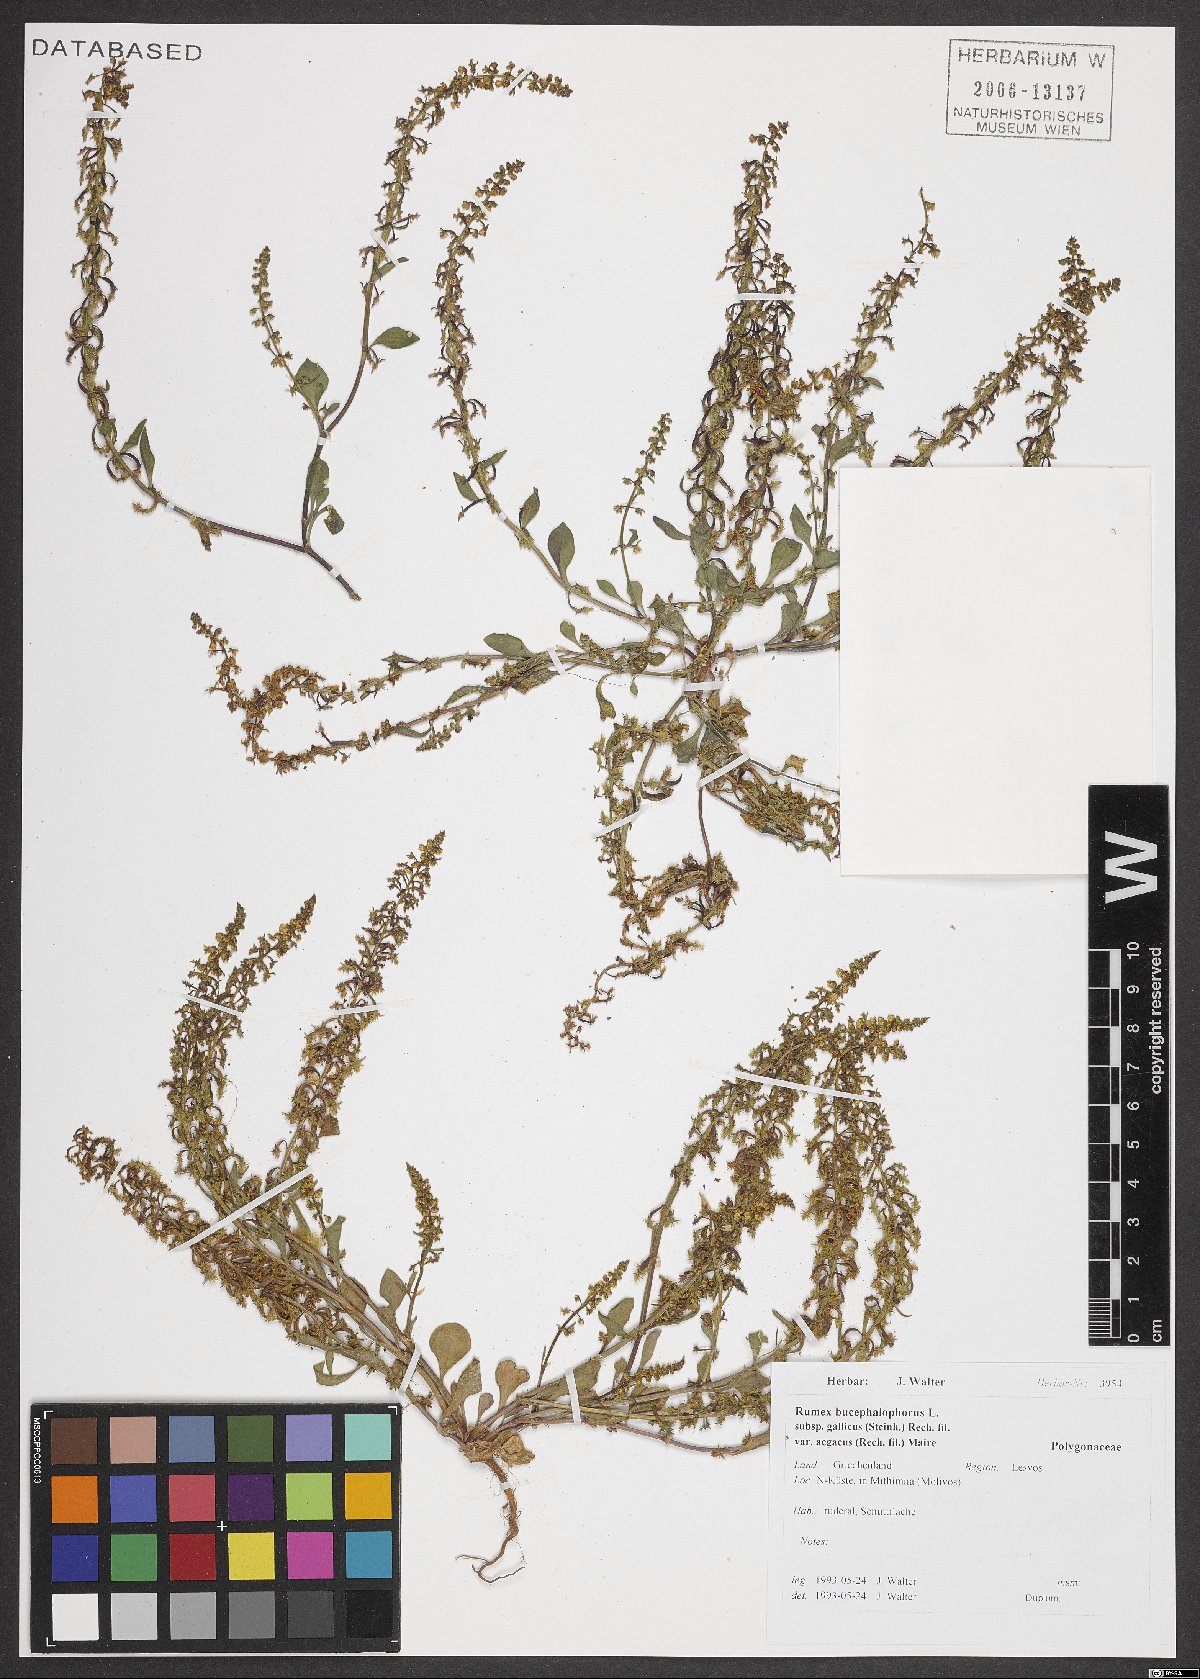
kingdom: Plantae
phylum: Tracheophyta
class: Magnoliopsida
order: Caryophyllales
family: Polygonaceae
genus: Rumex
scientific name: Rumex bucephalophorus
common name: Red dock
